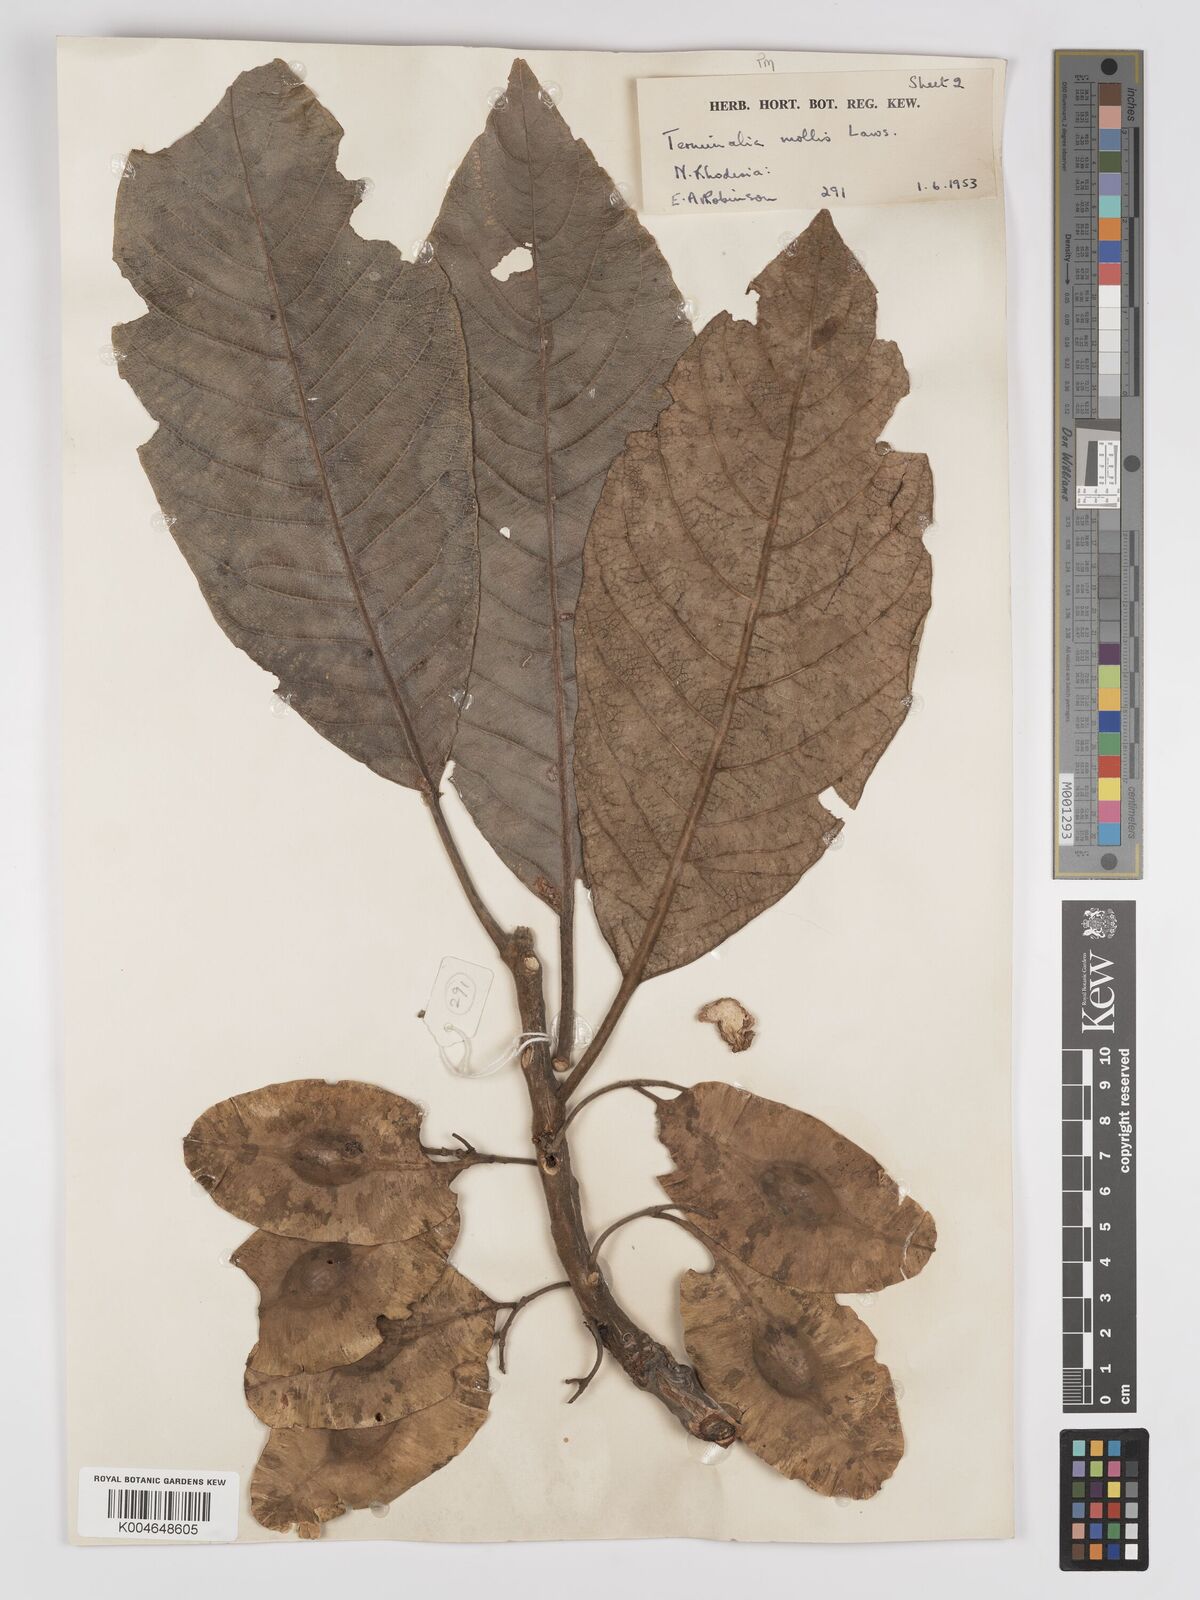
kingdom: Plantae
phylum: Tracheophyta
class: Magnoliopsida
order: Myrtales
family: Combretaceae
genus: Terminalia
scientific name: Terminalia
